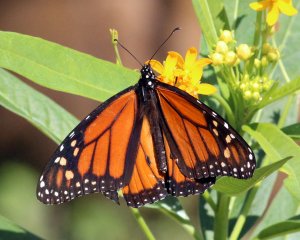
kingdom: Animalia
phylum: Arthropoda
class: Insecta
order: Lepidoptera
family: Nymphalidae
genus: Danaus
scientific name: Danaus plexippus
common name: Monarch
